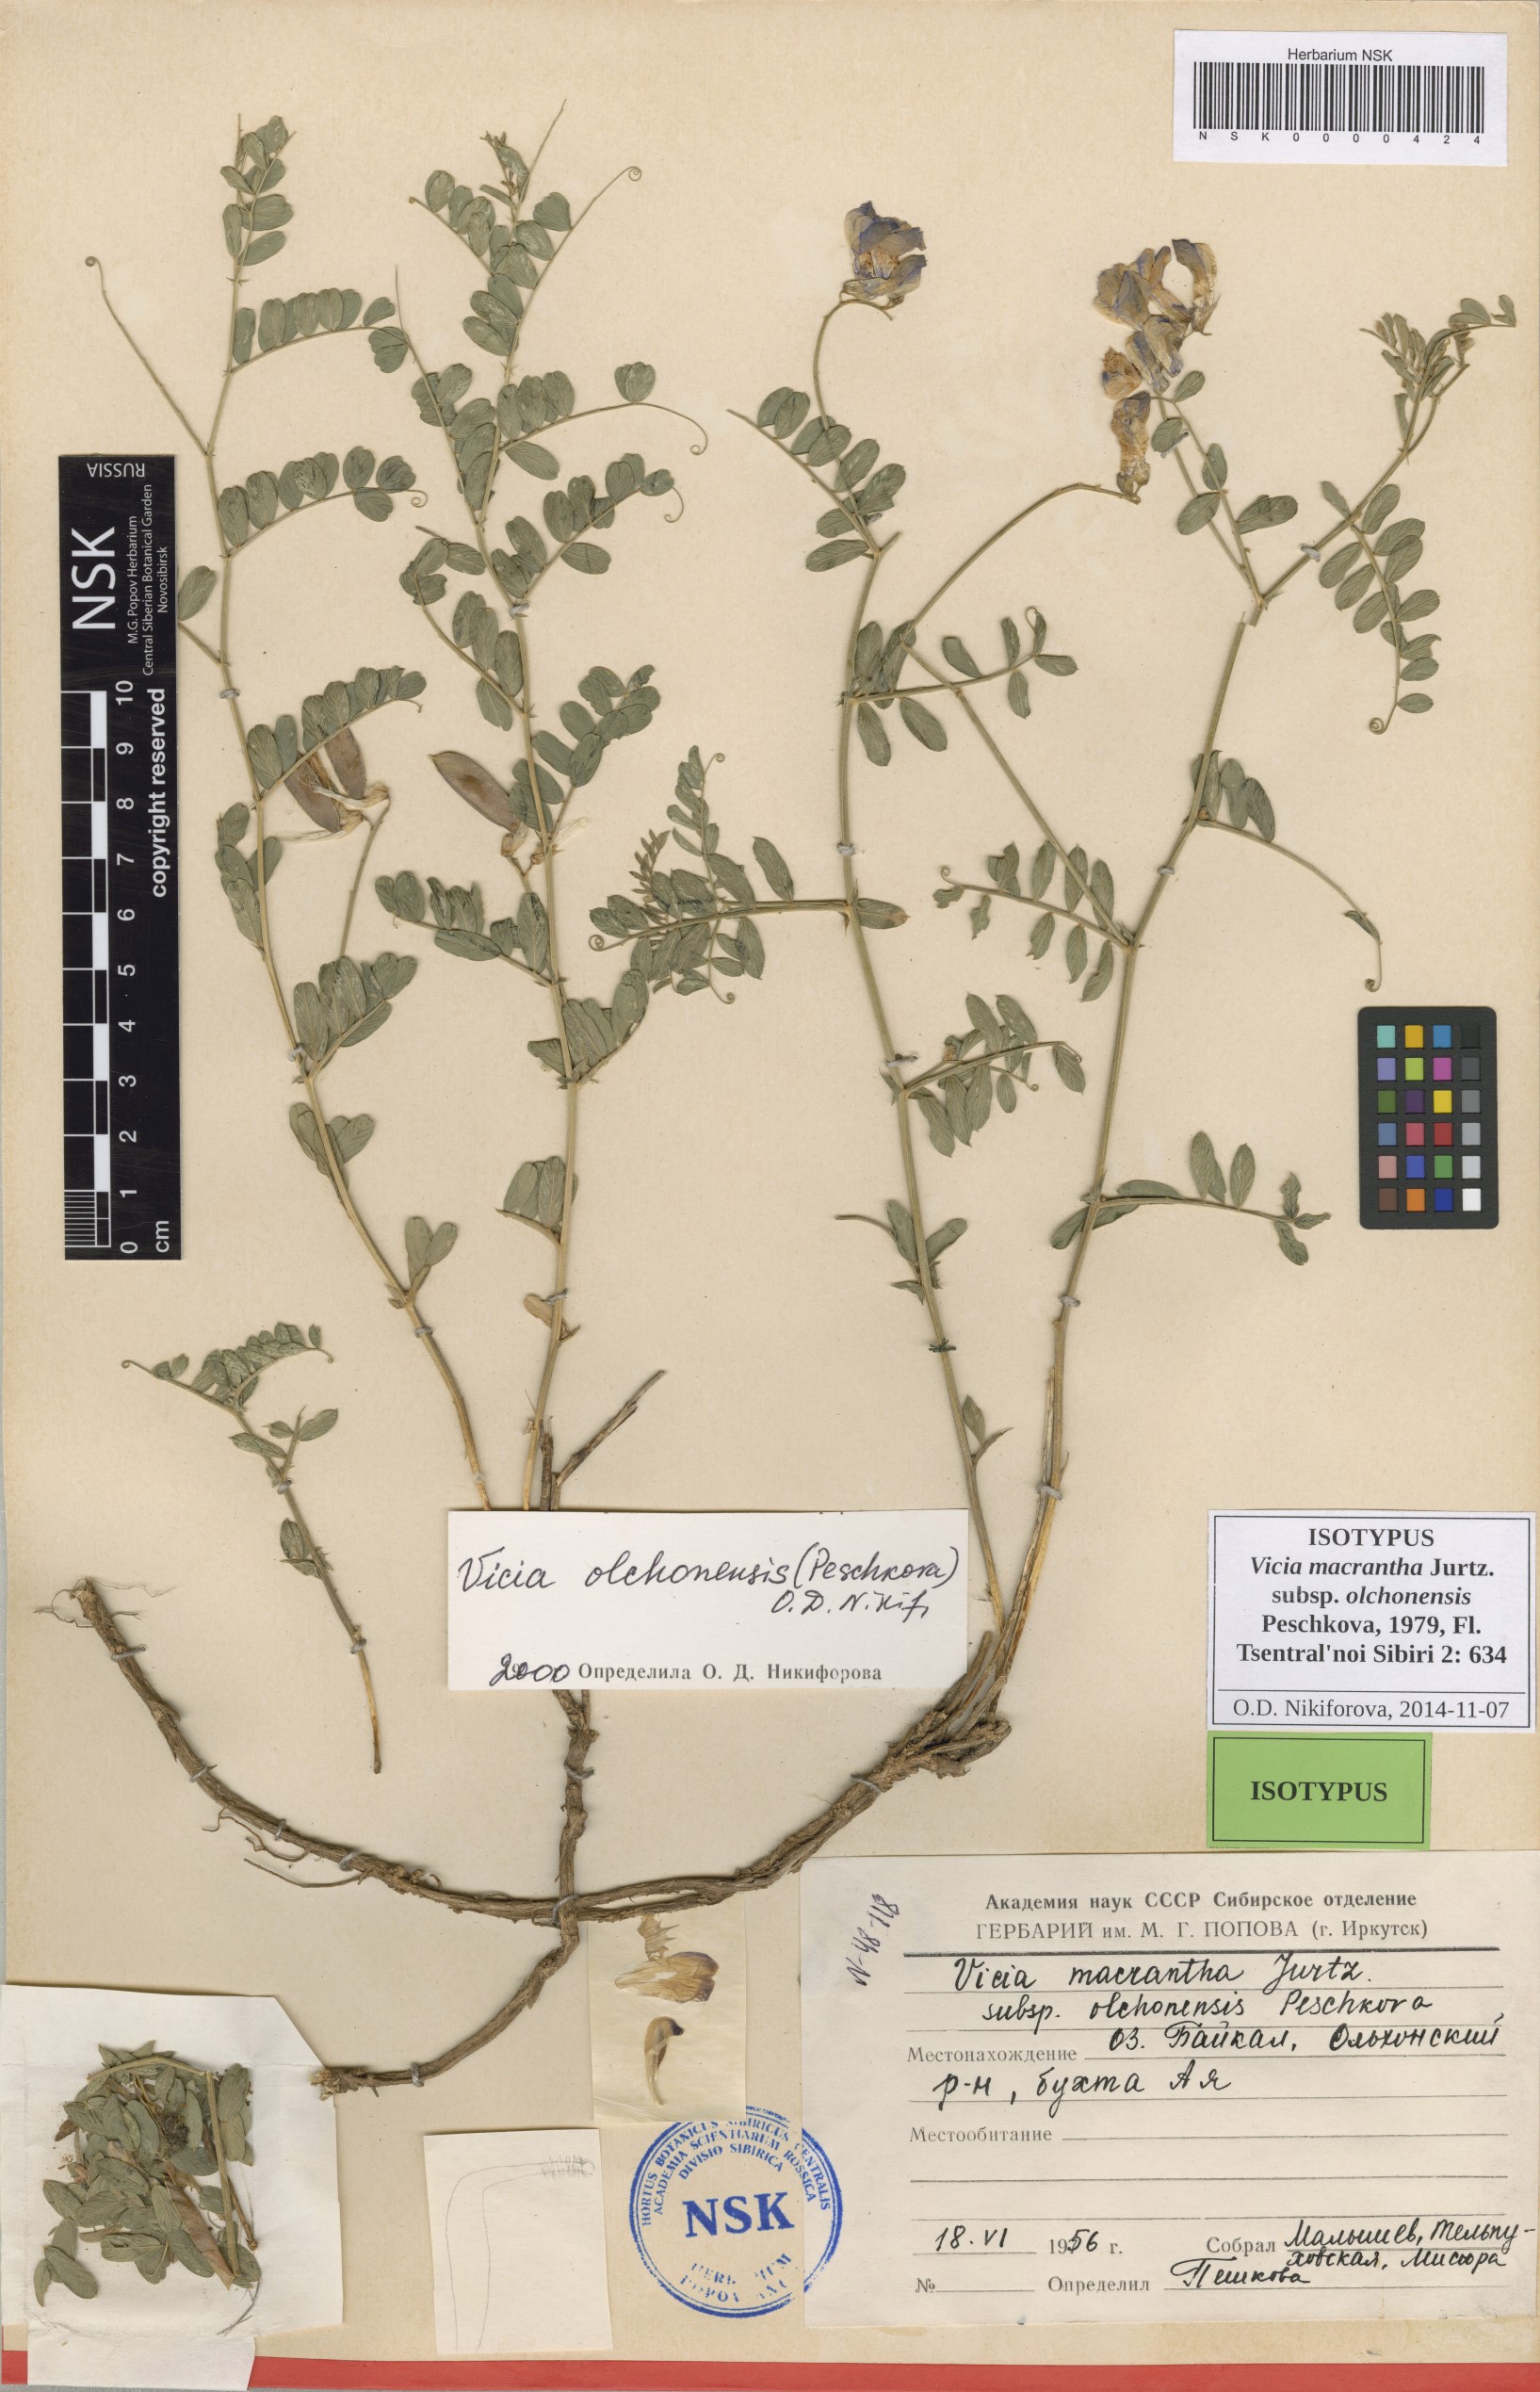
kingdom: Plantae
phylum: Tracheophyta
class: Magnoliopsida
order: Fabales
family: Fabaceae
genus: Vicia
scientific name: Vicia olchonensis
